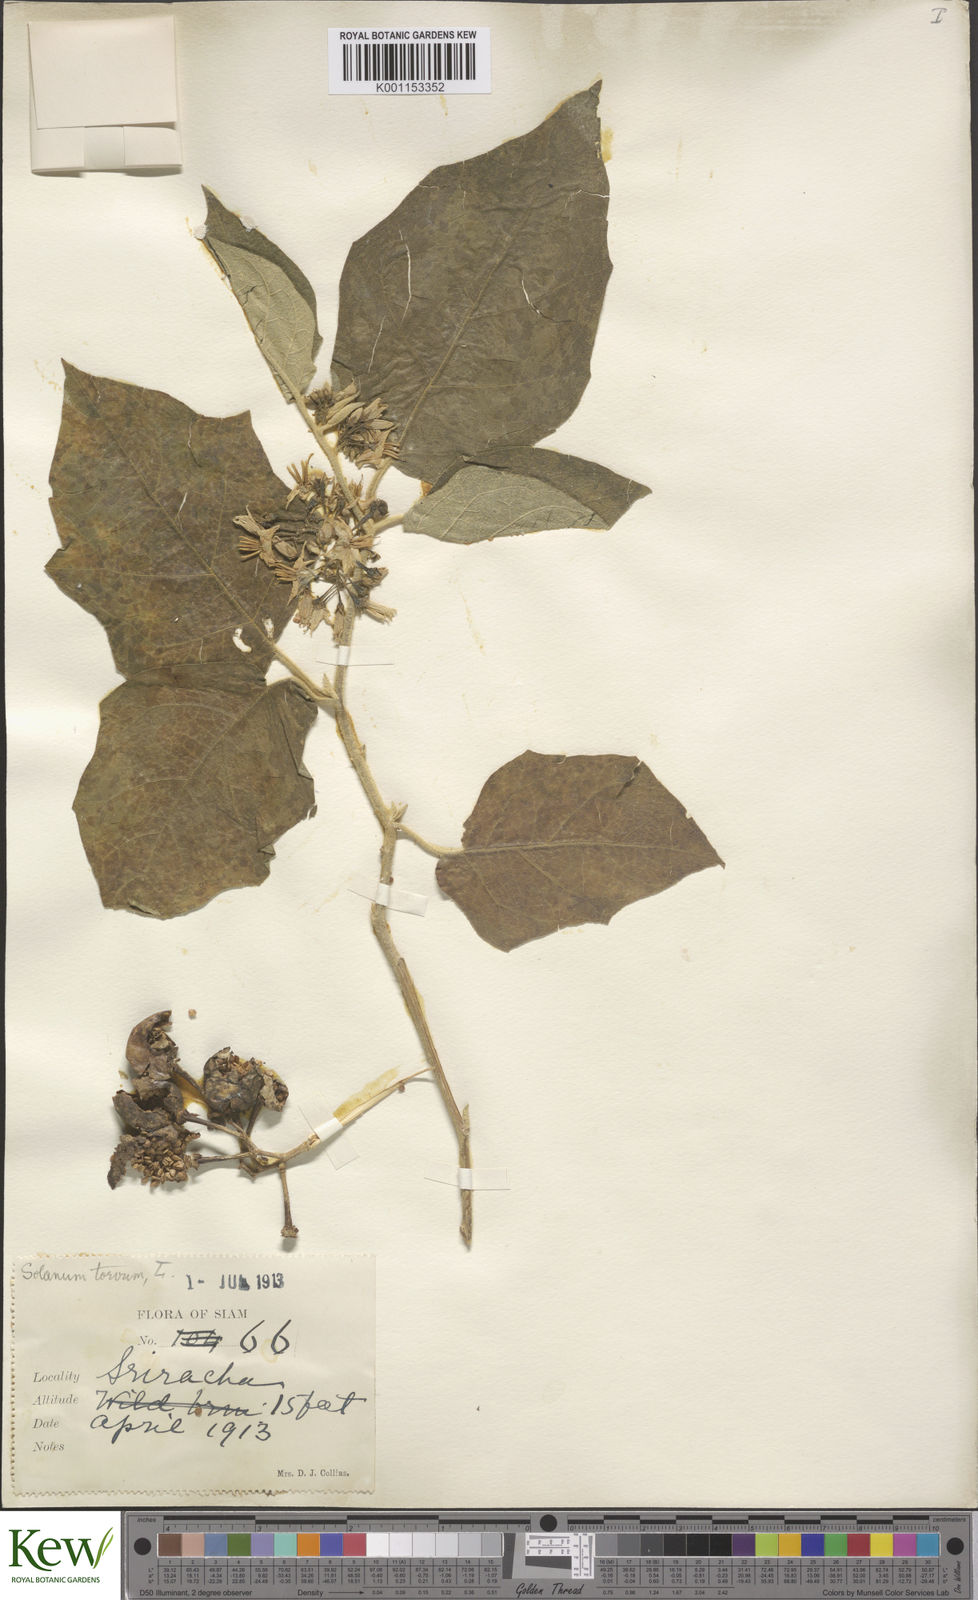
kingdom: Plantae
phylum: Tracheophyta
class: Magnoliopsida
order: Solanales
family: Solanaceae
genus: Solanum
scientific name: Solanum torvum
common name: Turkey berry
